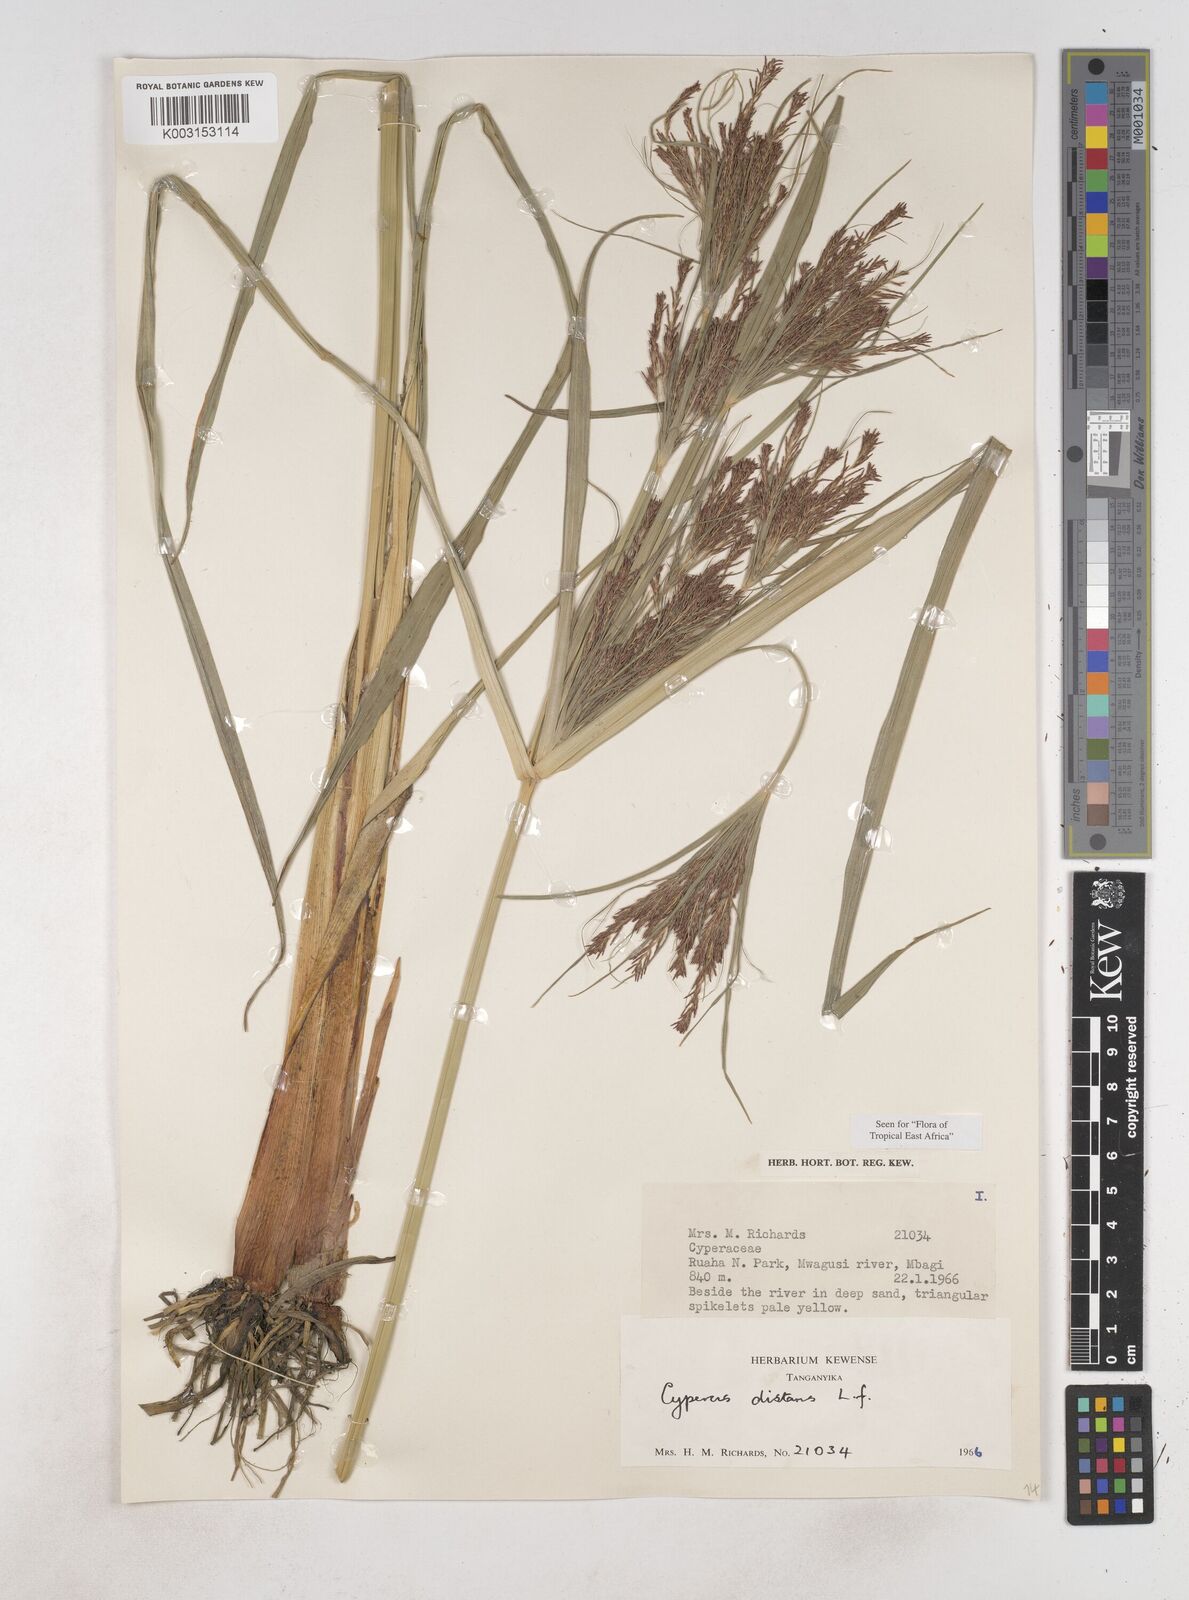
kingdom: Plantae
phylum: Tracheophyta
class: Liliopsida
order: Poales
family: Cyperaceae
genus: Cyperus
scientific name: Cyperus distans
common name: Slender cyperus
